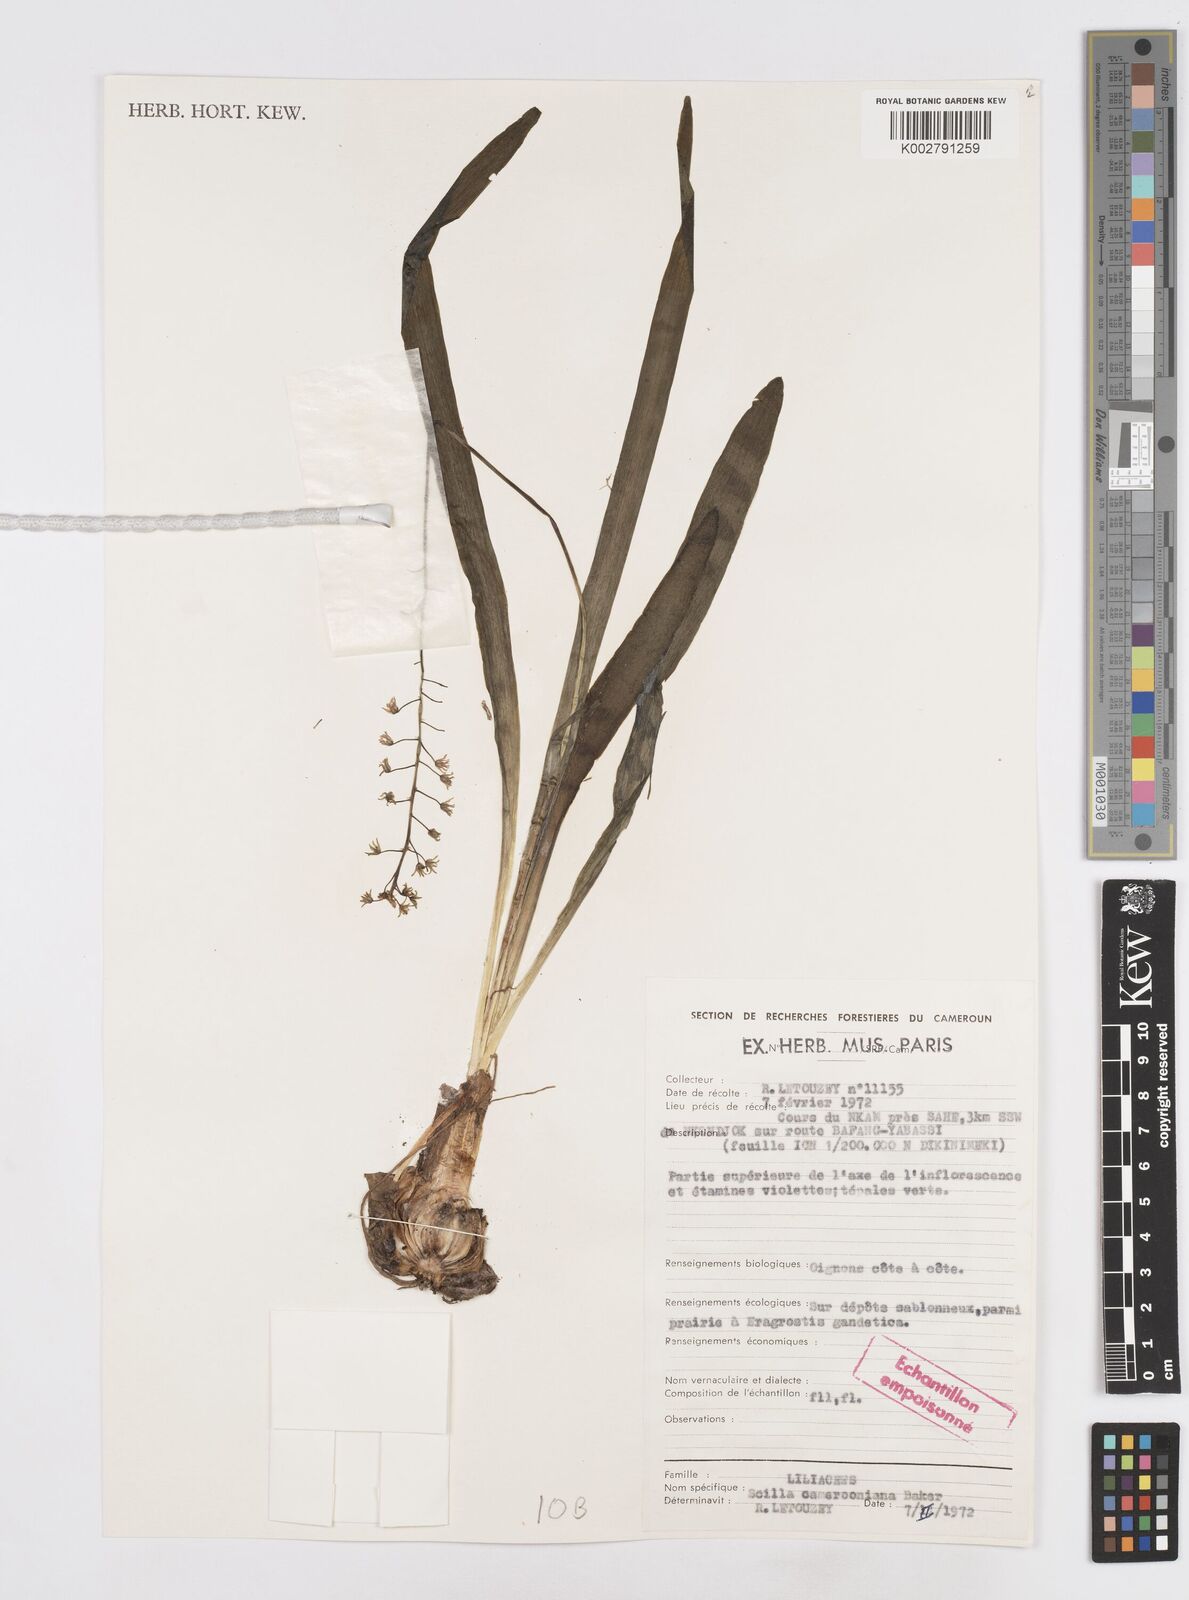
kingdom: Plantae
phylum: Tracheophyta
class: Liliopsida
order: Asparagales
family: Asparagaceae
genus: Ledebouria
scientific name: Ledebouria camerooniana
